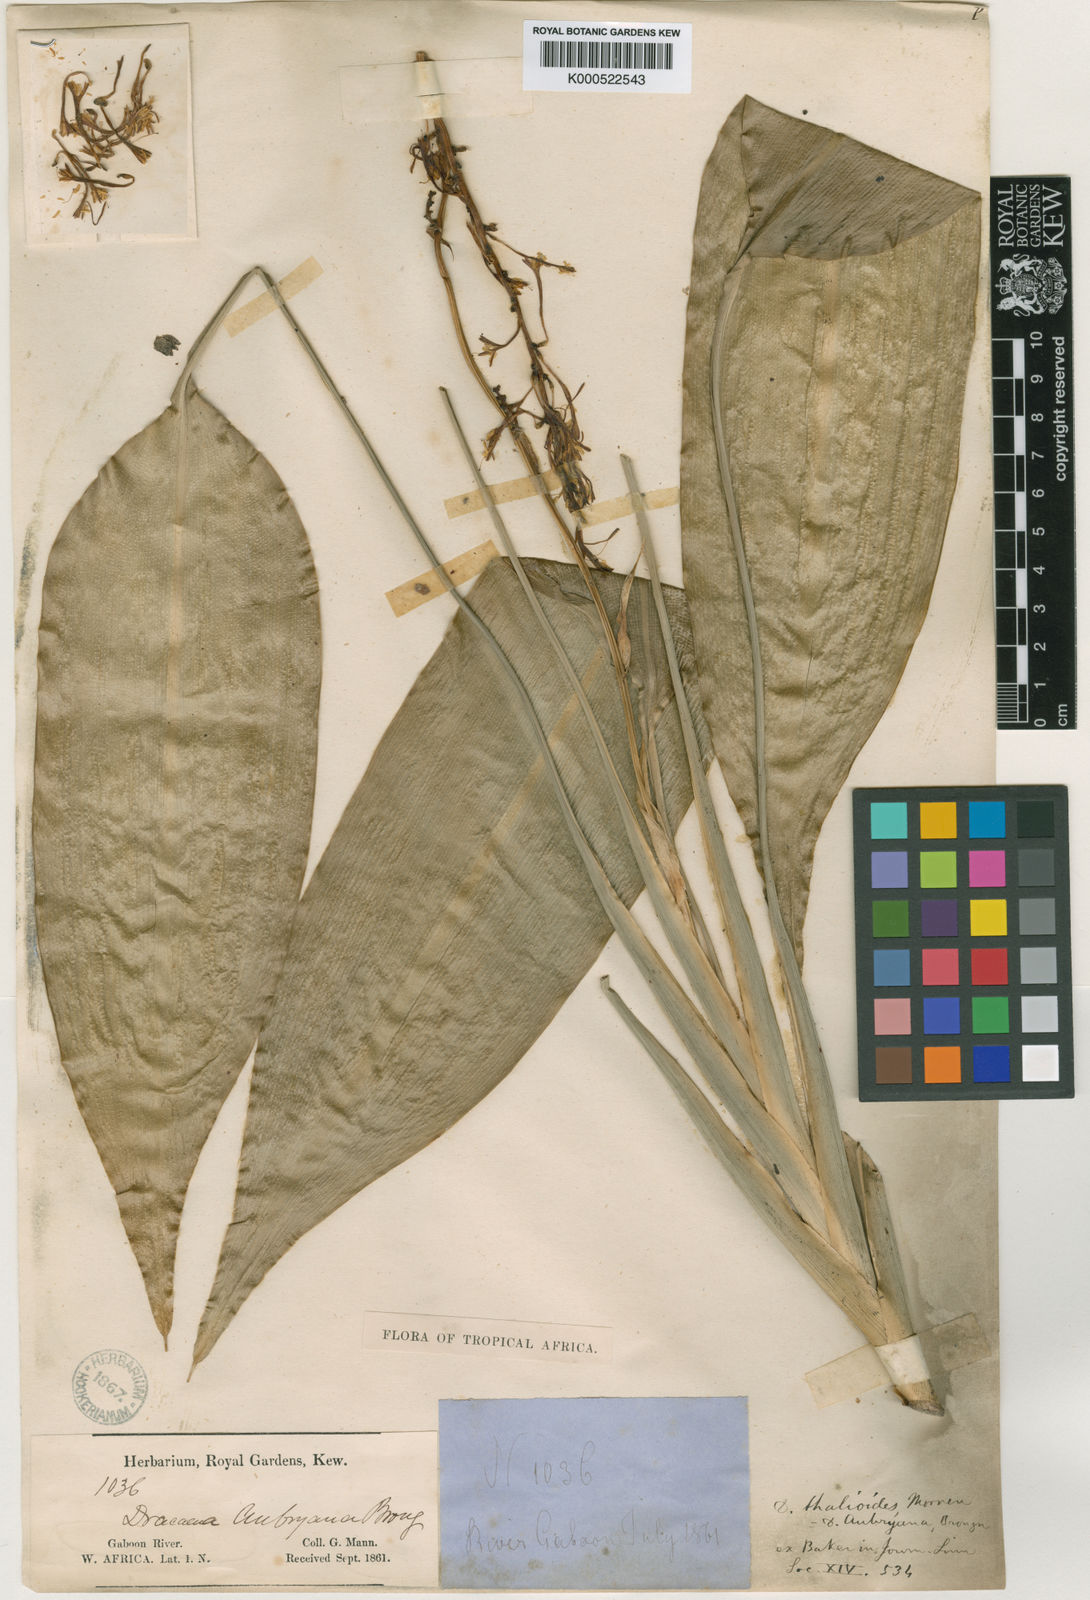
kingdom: Plantae
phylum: Tracheophyta
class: Liliopsida
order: Asparagales
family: Asparagaceae
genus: Dracaena
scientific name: Dracaena aubryana
